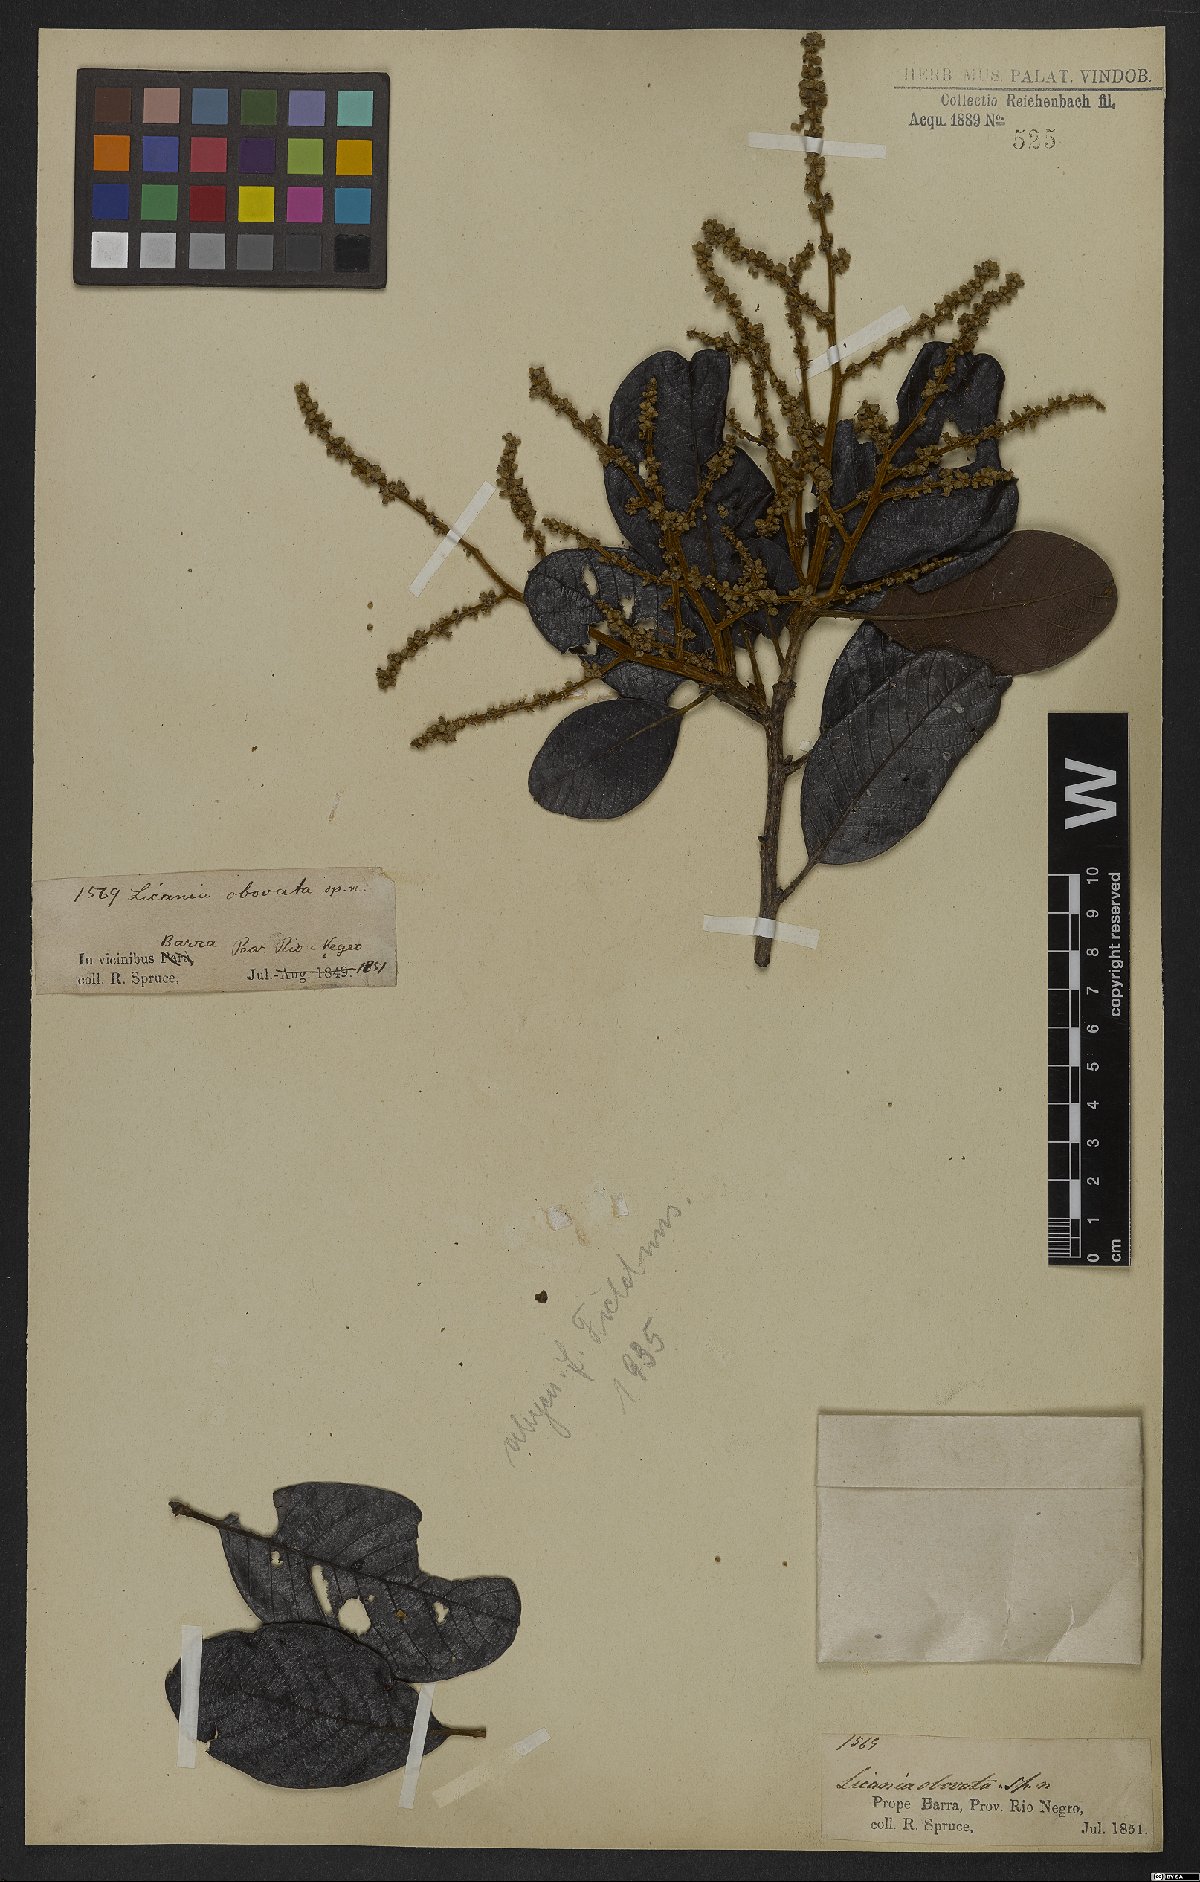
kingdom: Plantae
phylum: Tracheophyta
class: Magnoliopsida
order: Malpighiales
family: Chrysobalanaceae
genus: Hymenopus
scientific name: Hymenopus latifolius
